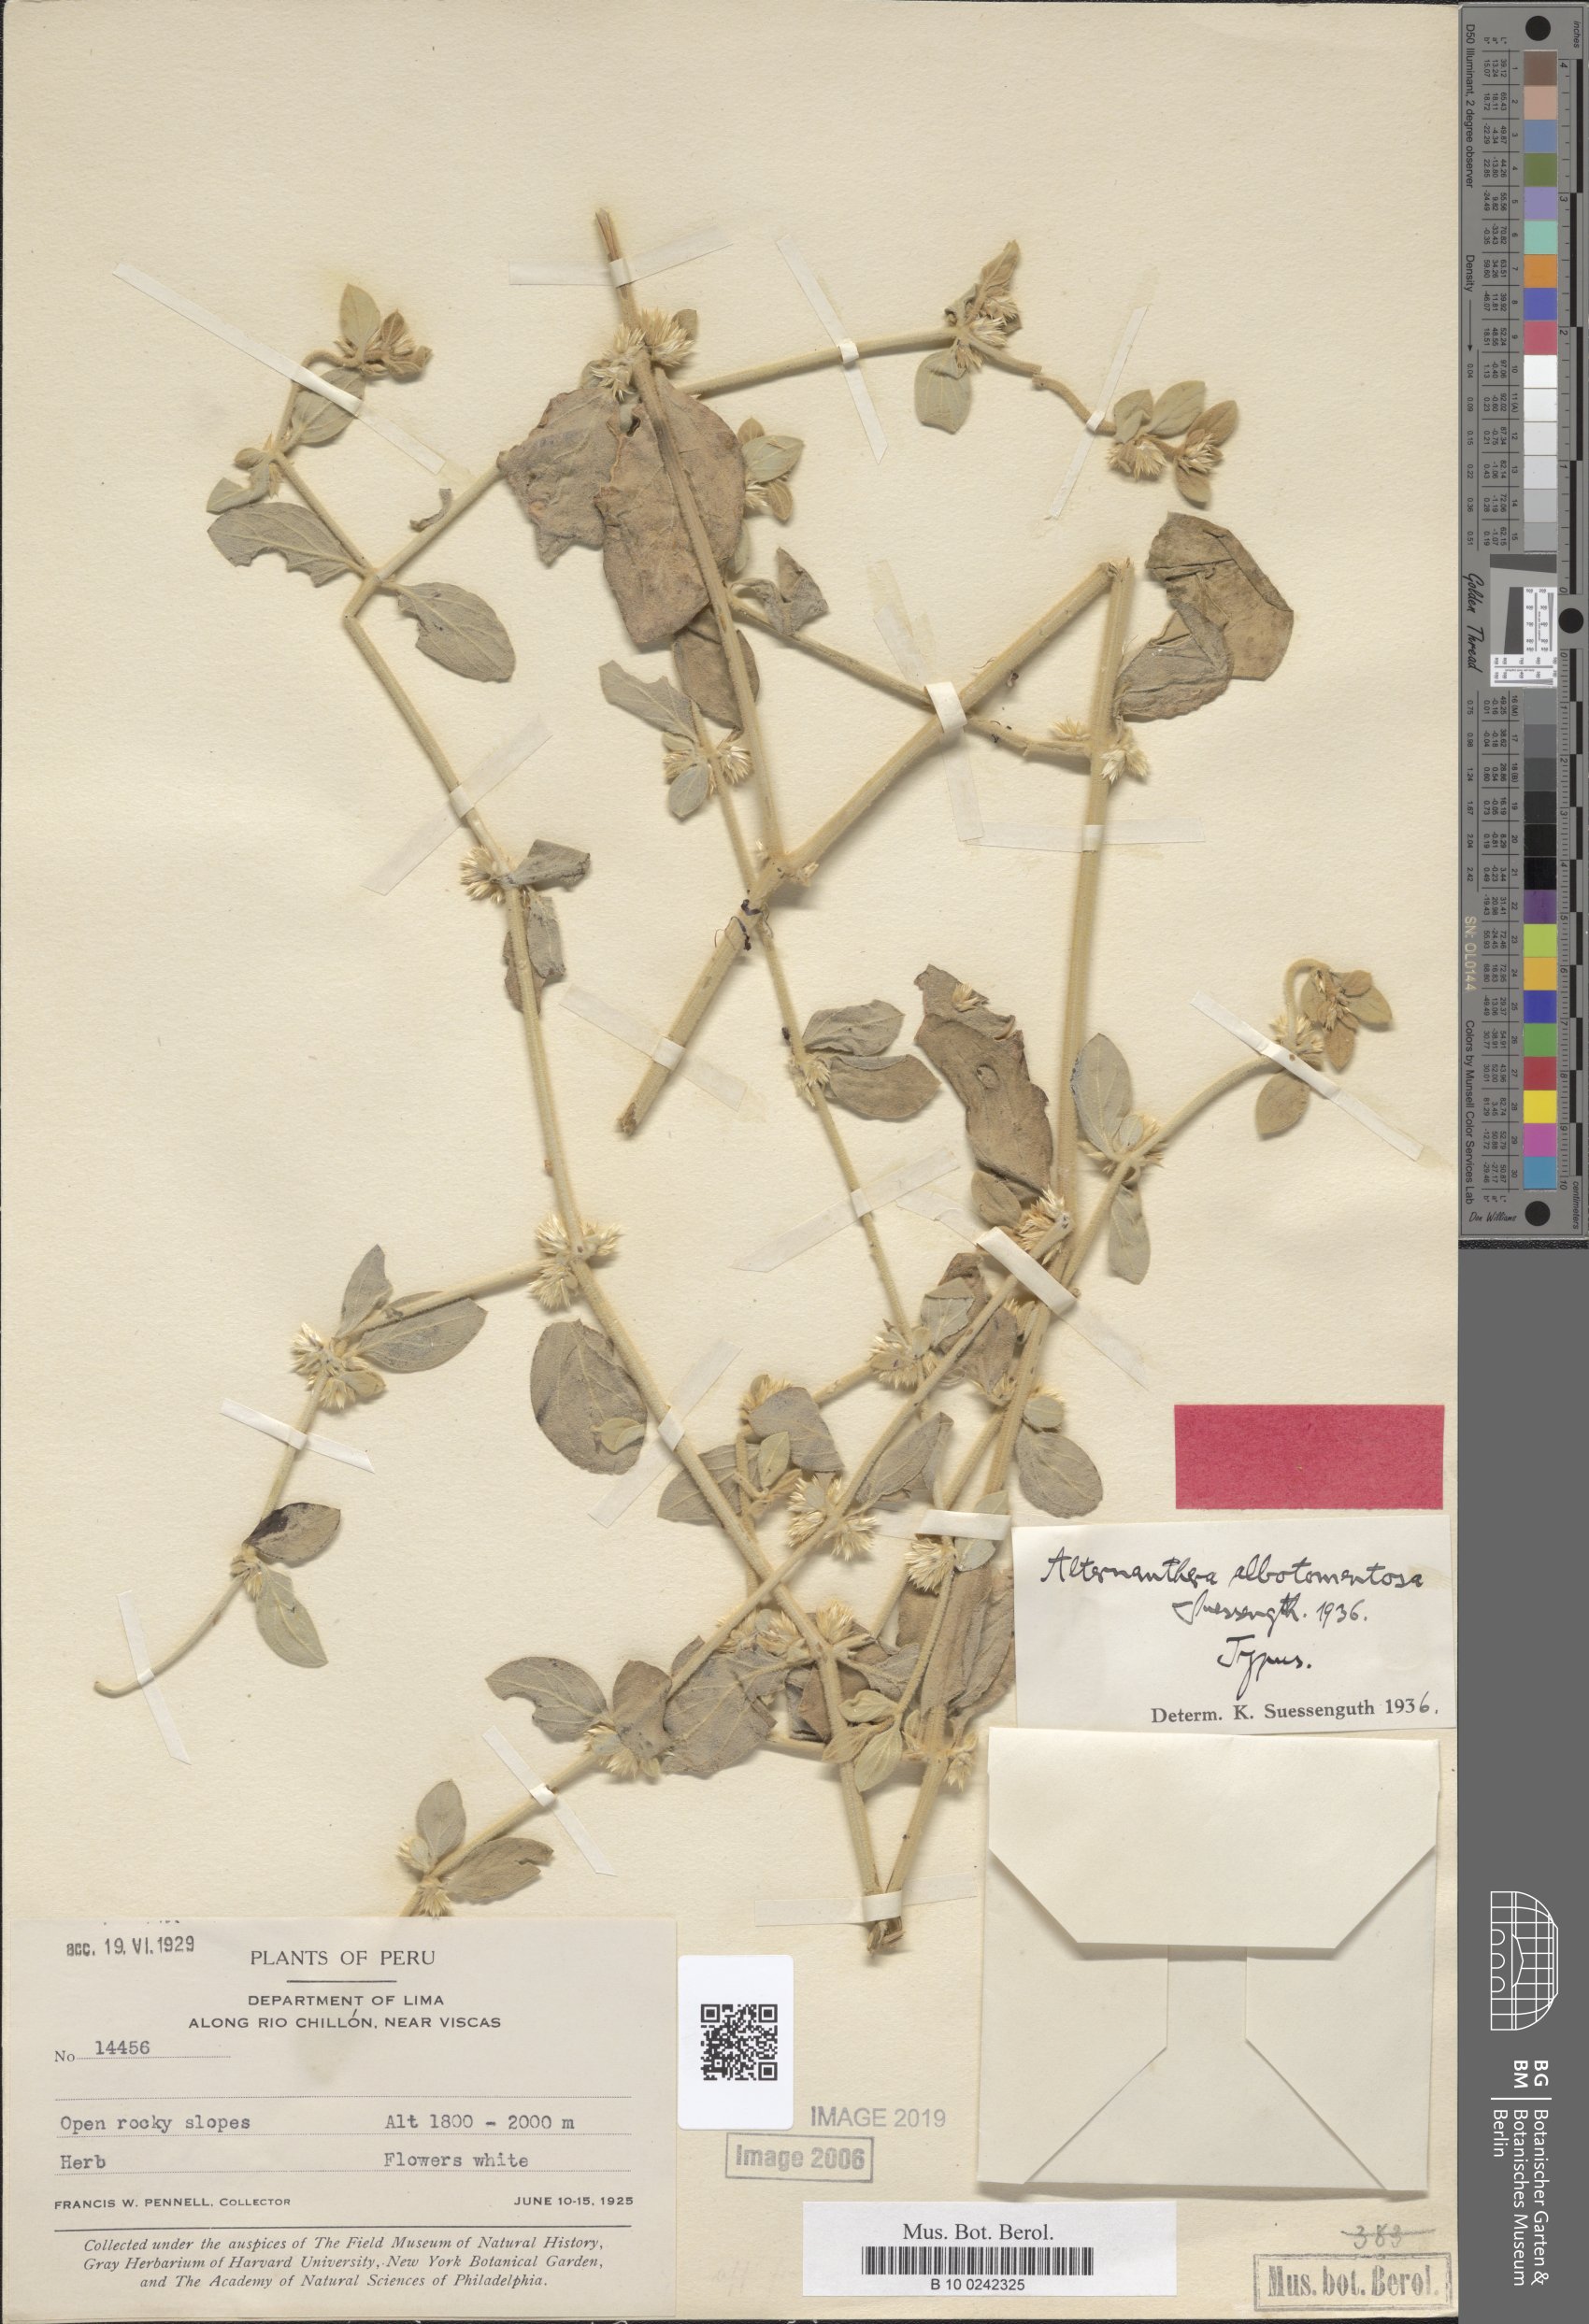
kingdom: Plantae
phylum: Tracheophyta
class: Magnoliopsida
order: Caryophyllales
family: Amaranthaceae
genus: Alternanthera
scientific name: Alternanthera albotomentosa
